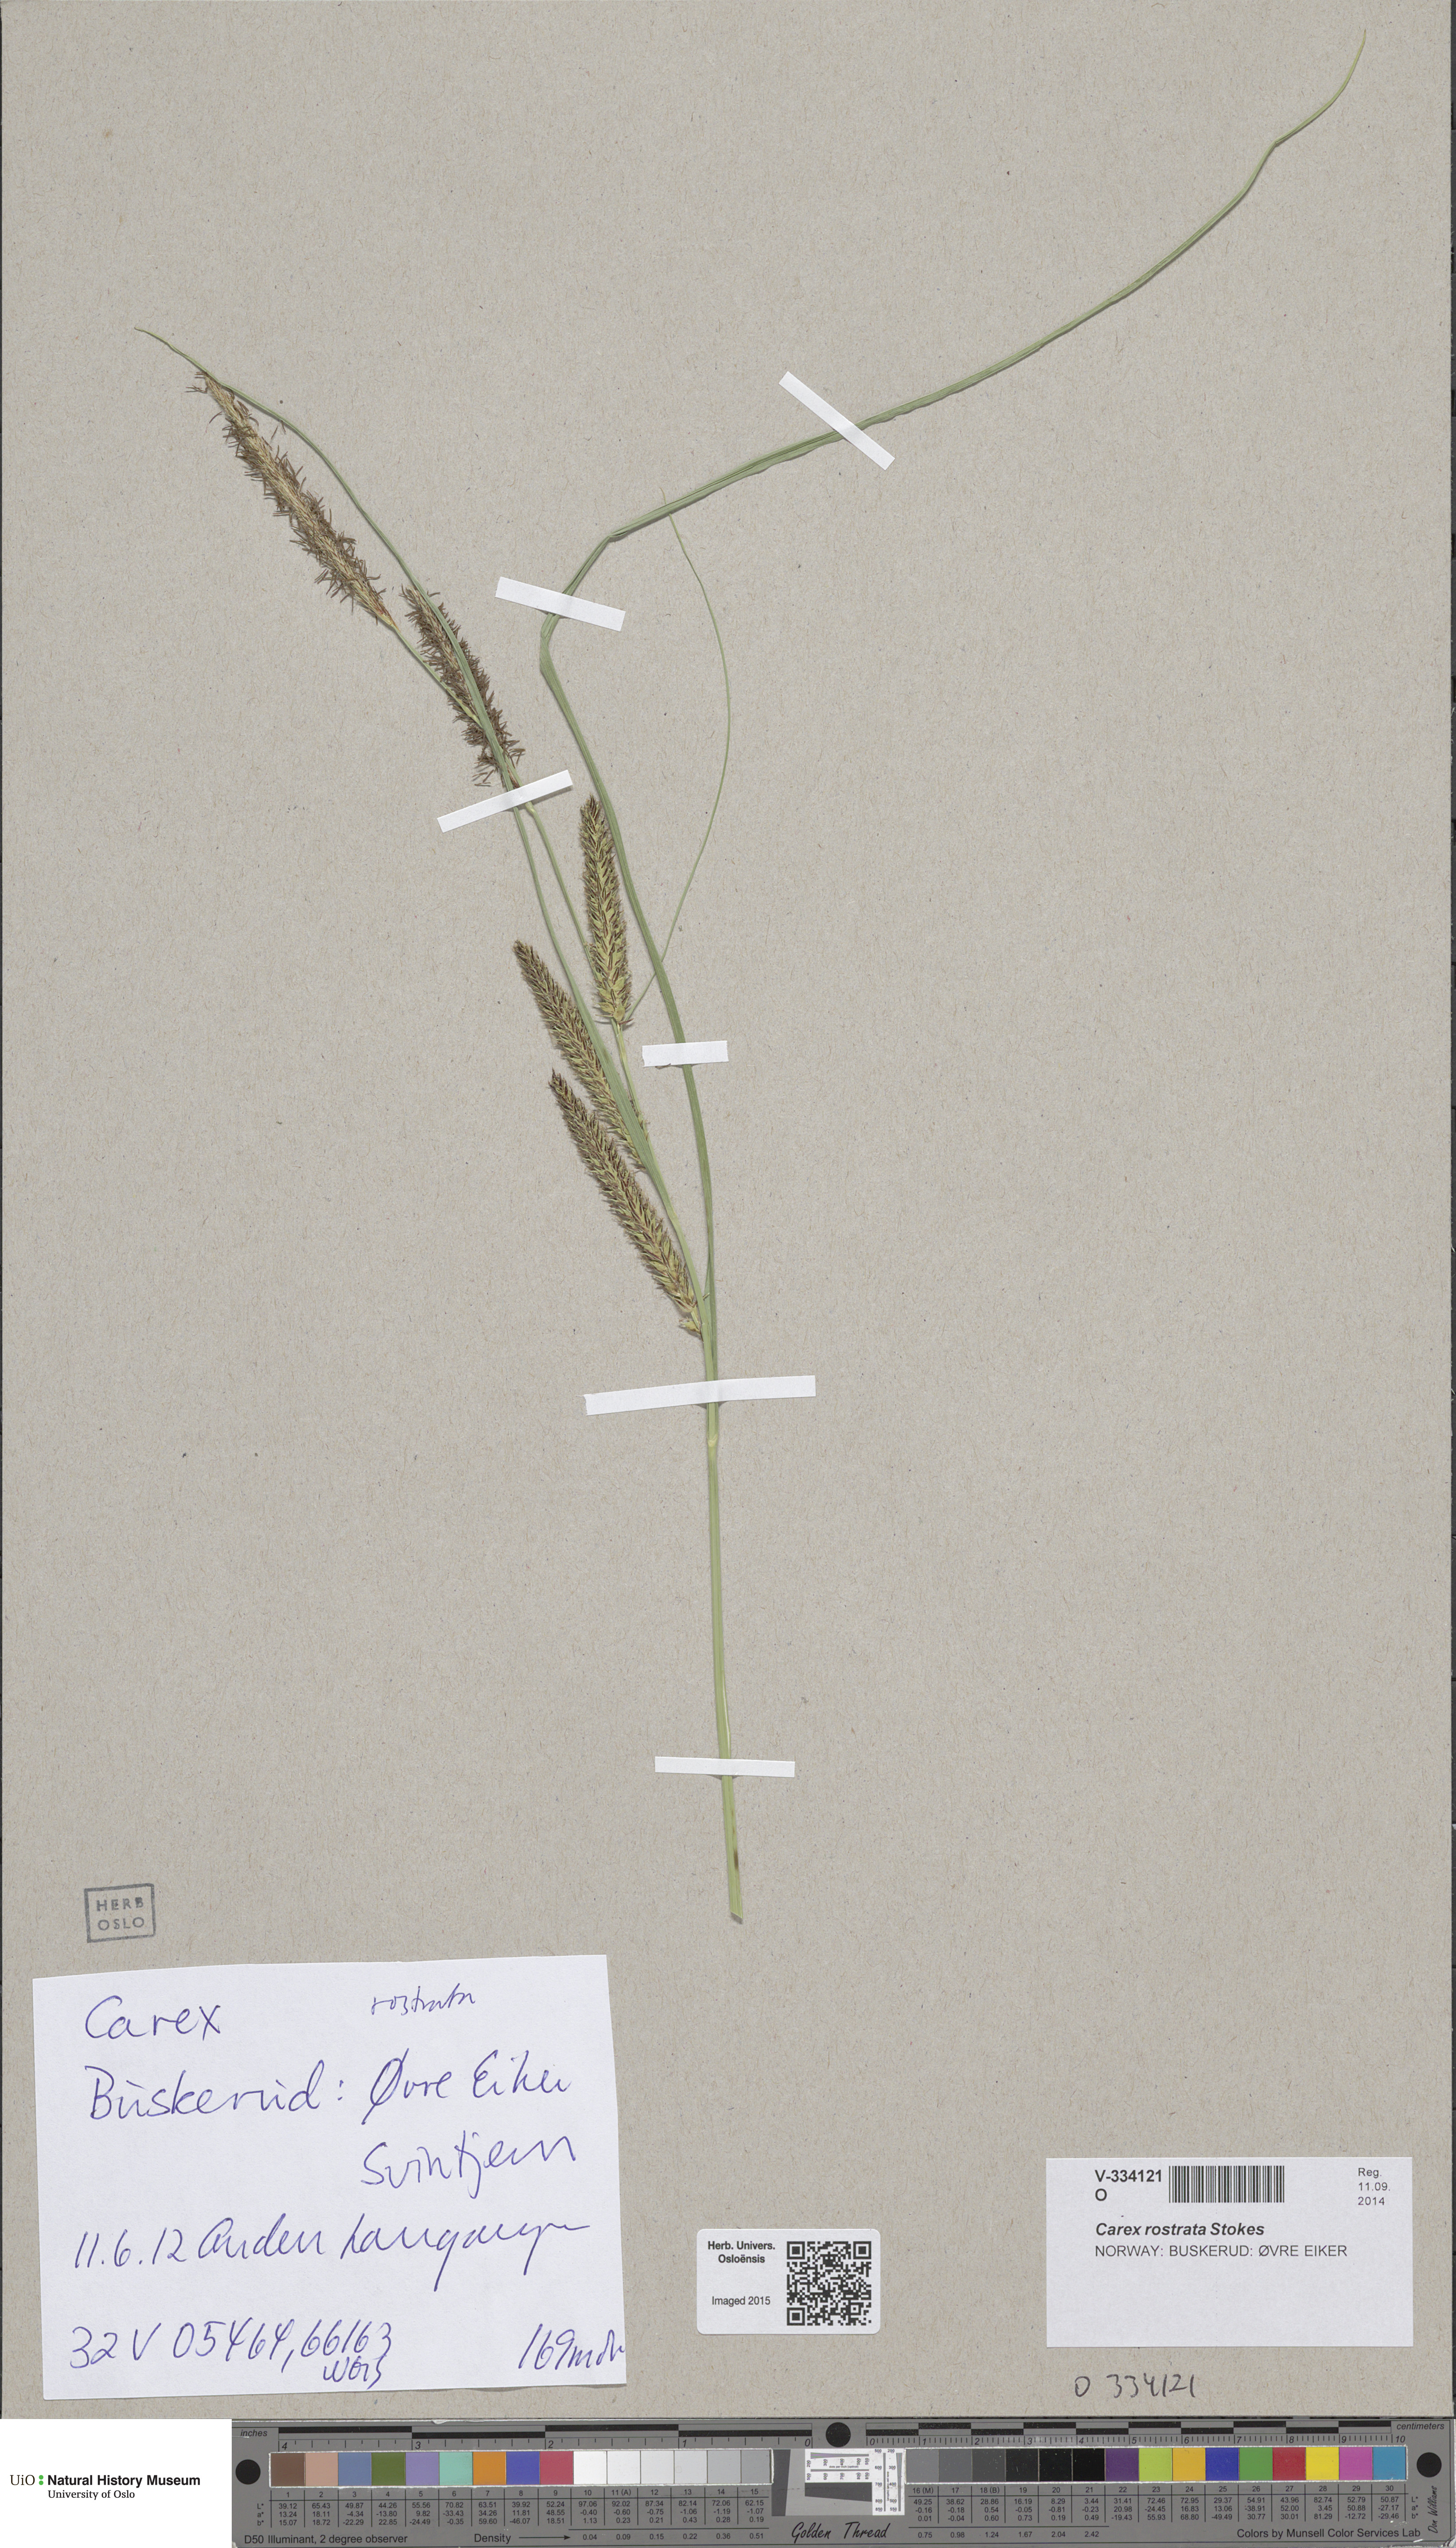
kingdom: Plantae
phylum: Tracheophyta
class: Liliopsida
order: Poales
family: Cyperaceae
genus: Carex
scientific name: Carex rostrata
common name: Bottle sedge
